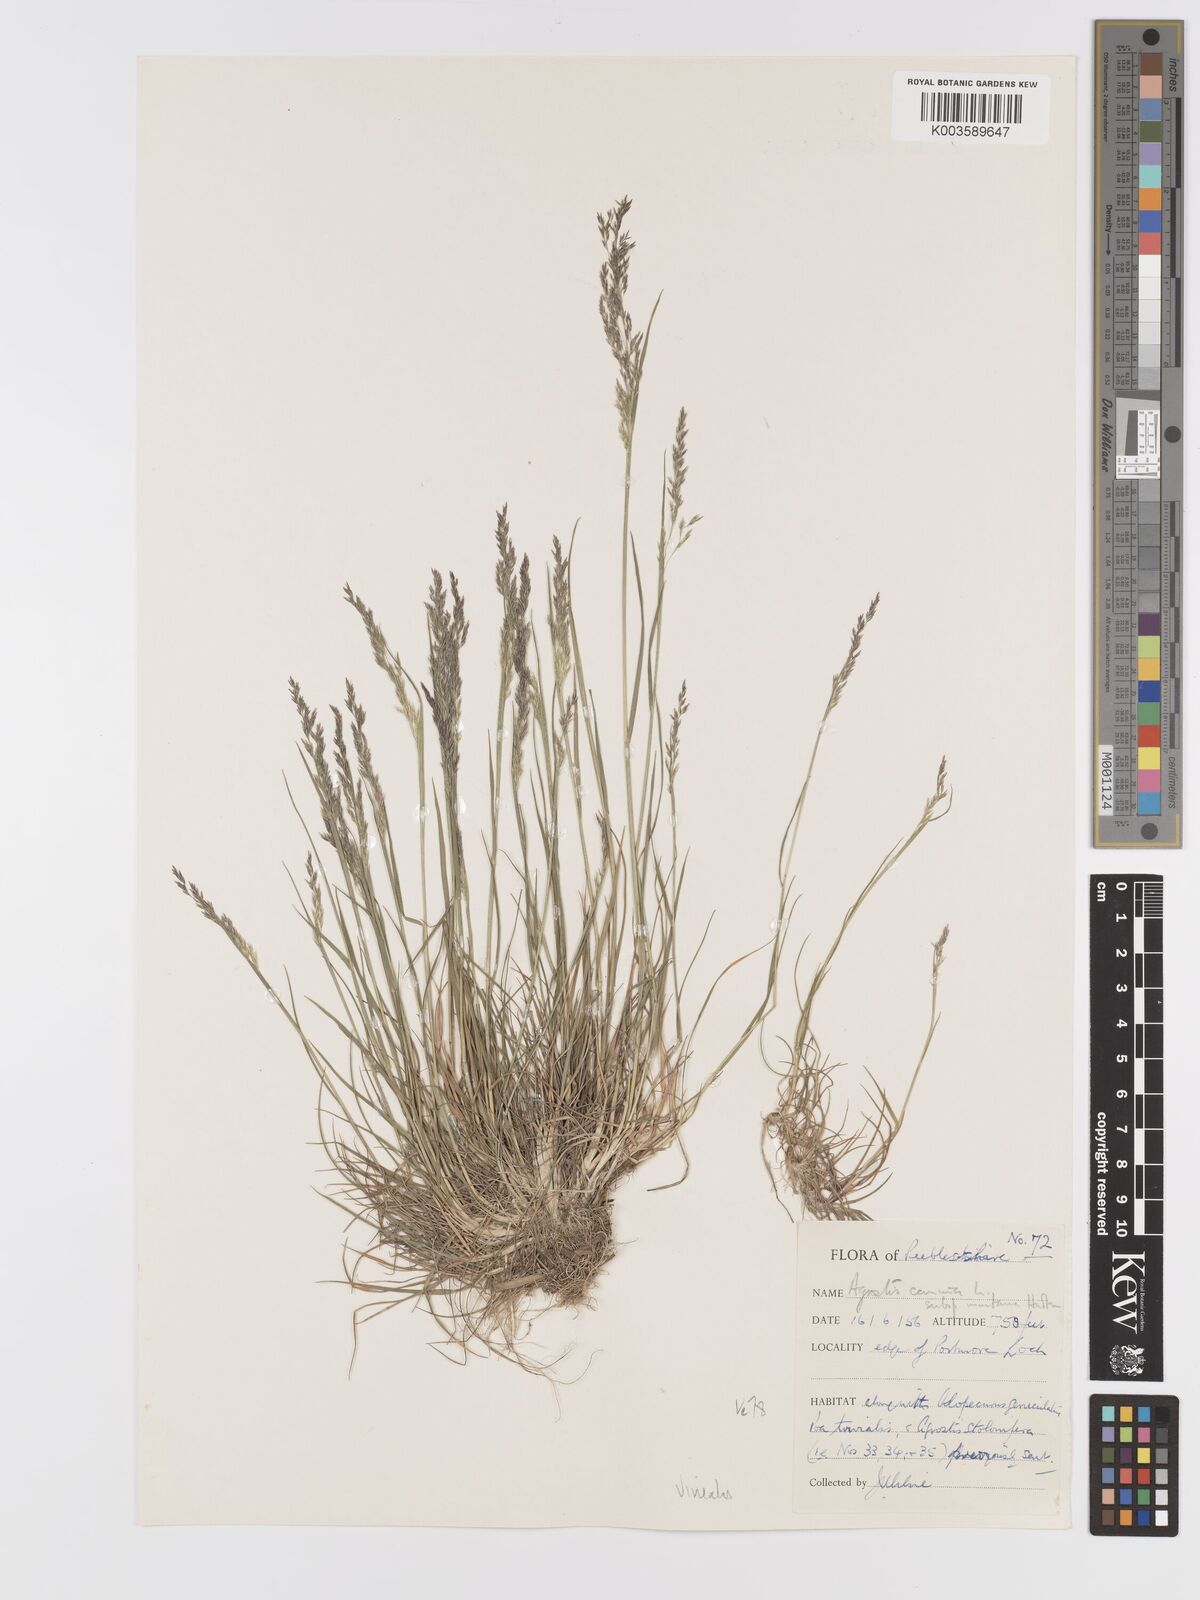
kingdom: Plantae
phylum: Tracheophyta
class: Liliopsida
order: Poales
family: Poaceae
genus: Agrostis
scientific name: Agrostis
